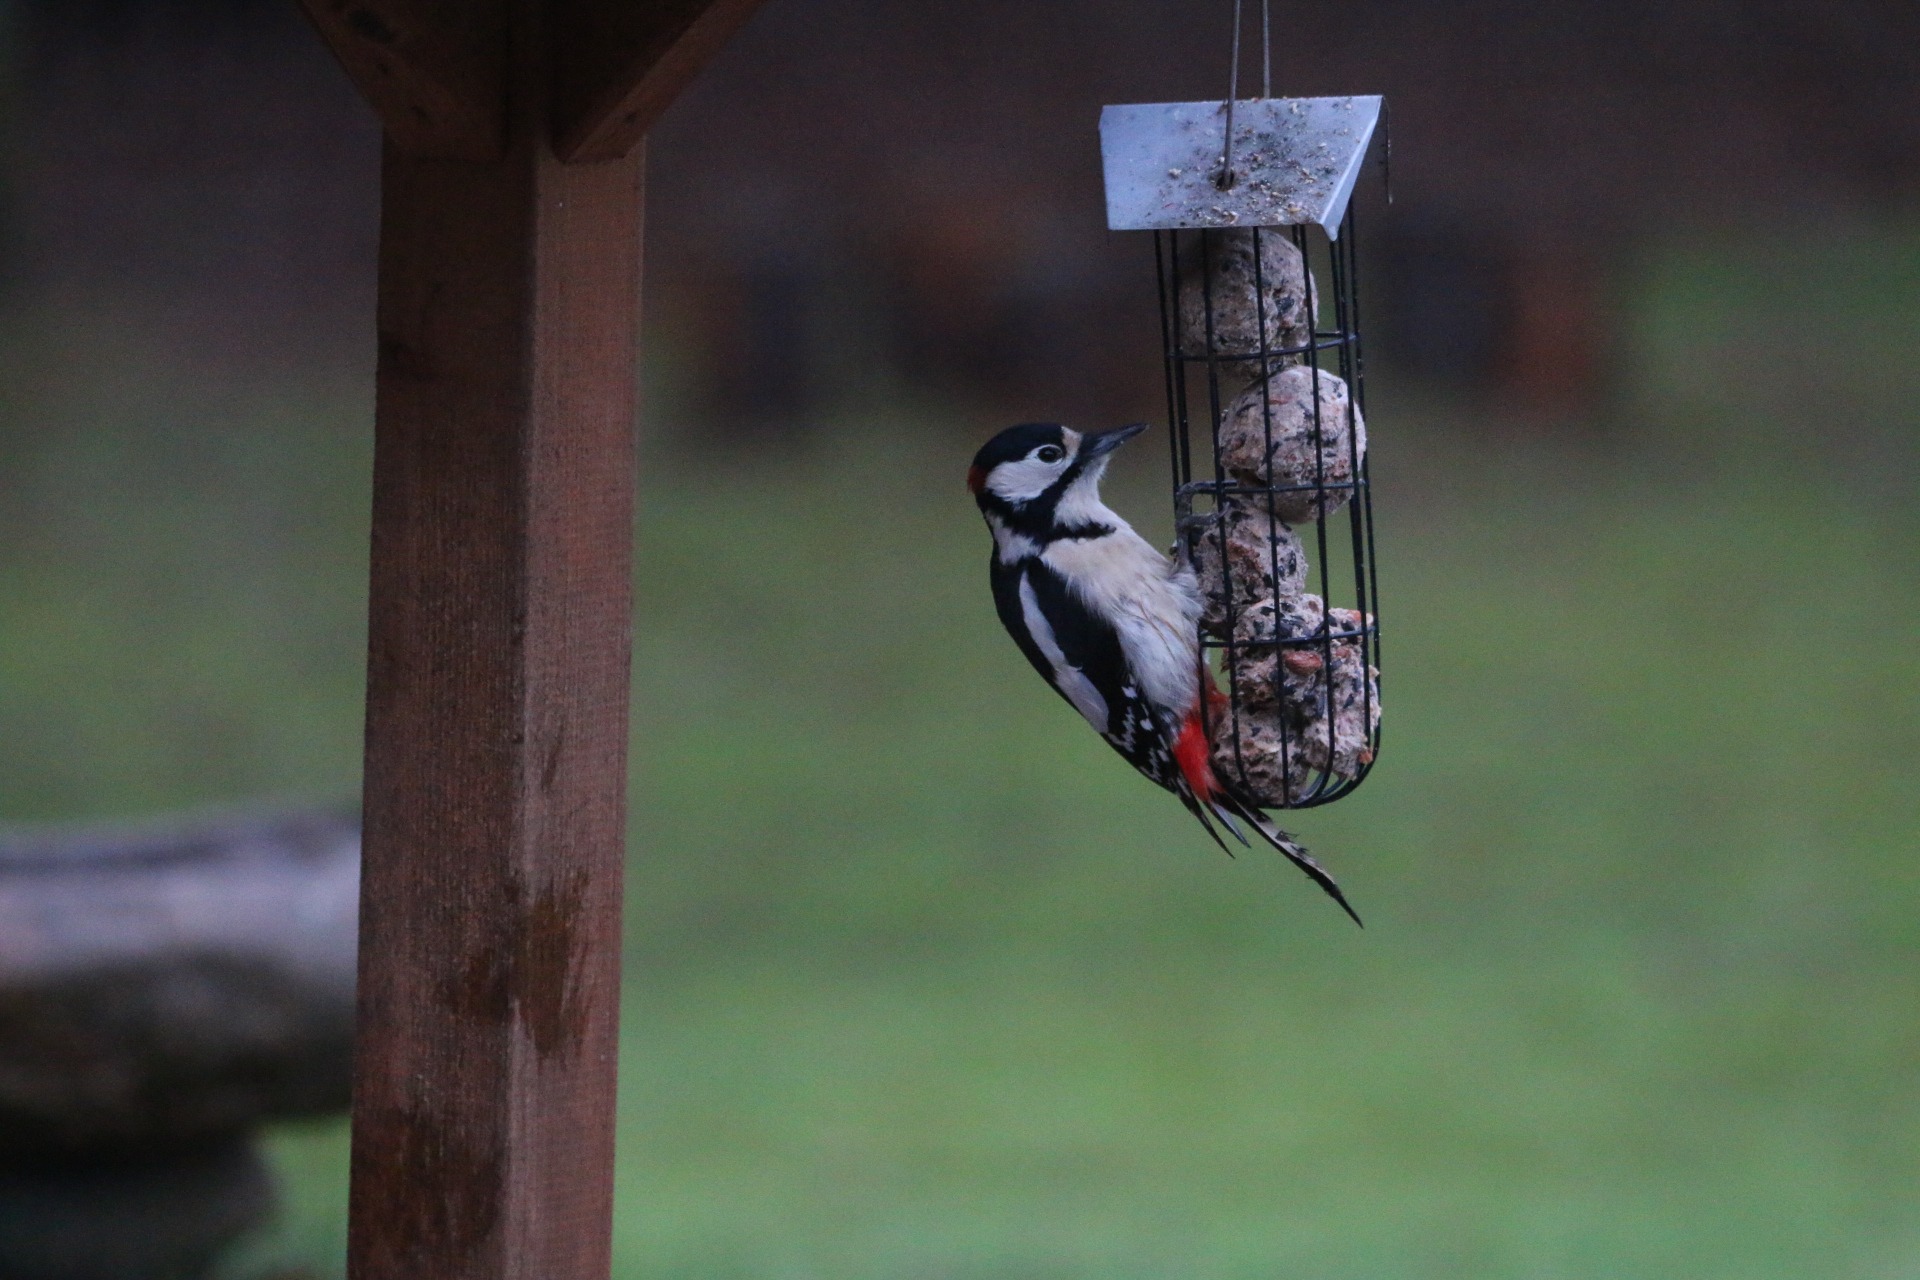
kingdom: Animalia
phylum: Chordata
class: Aves
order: Piciformes
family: Picidae
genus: Dendrocopos
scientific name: Dendrocopos major
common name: Stor flagspætte
